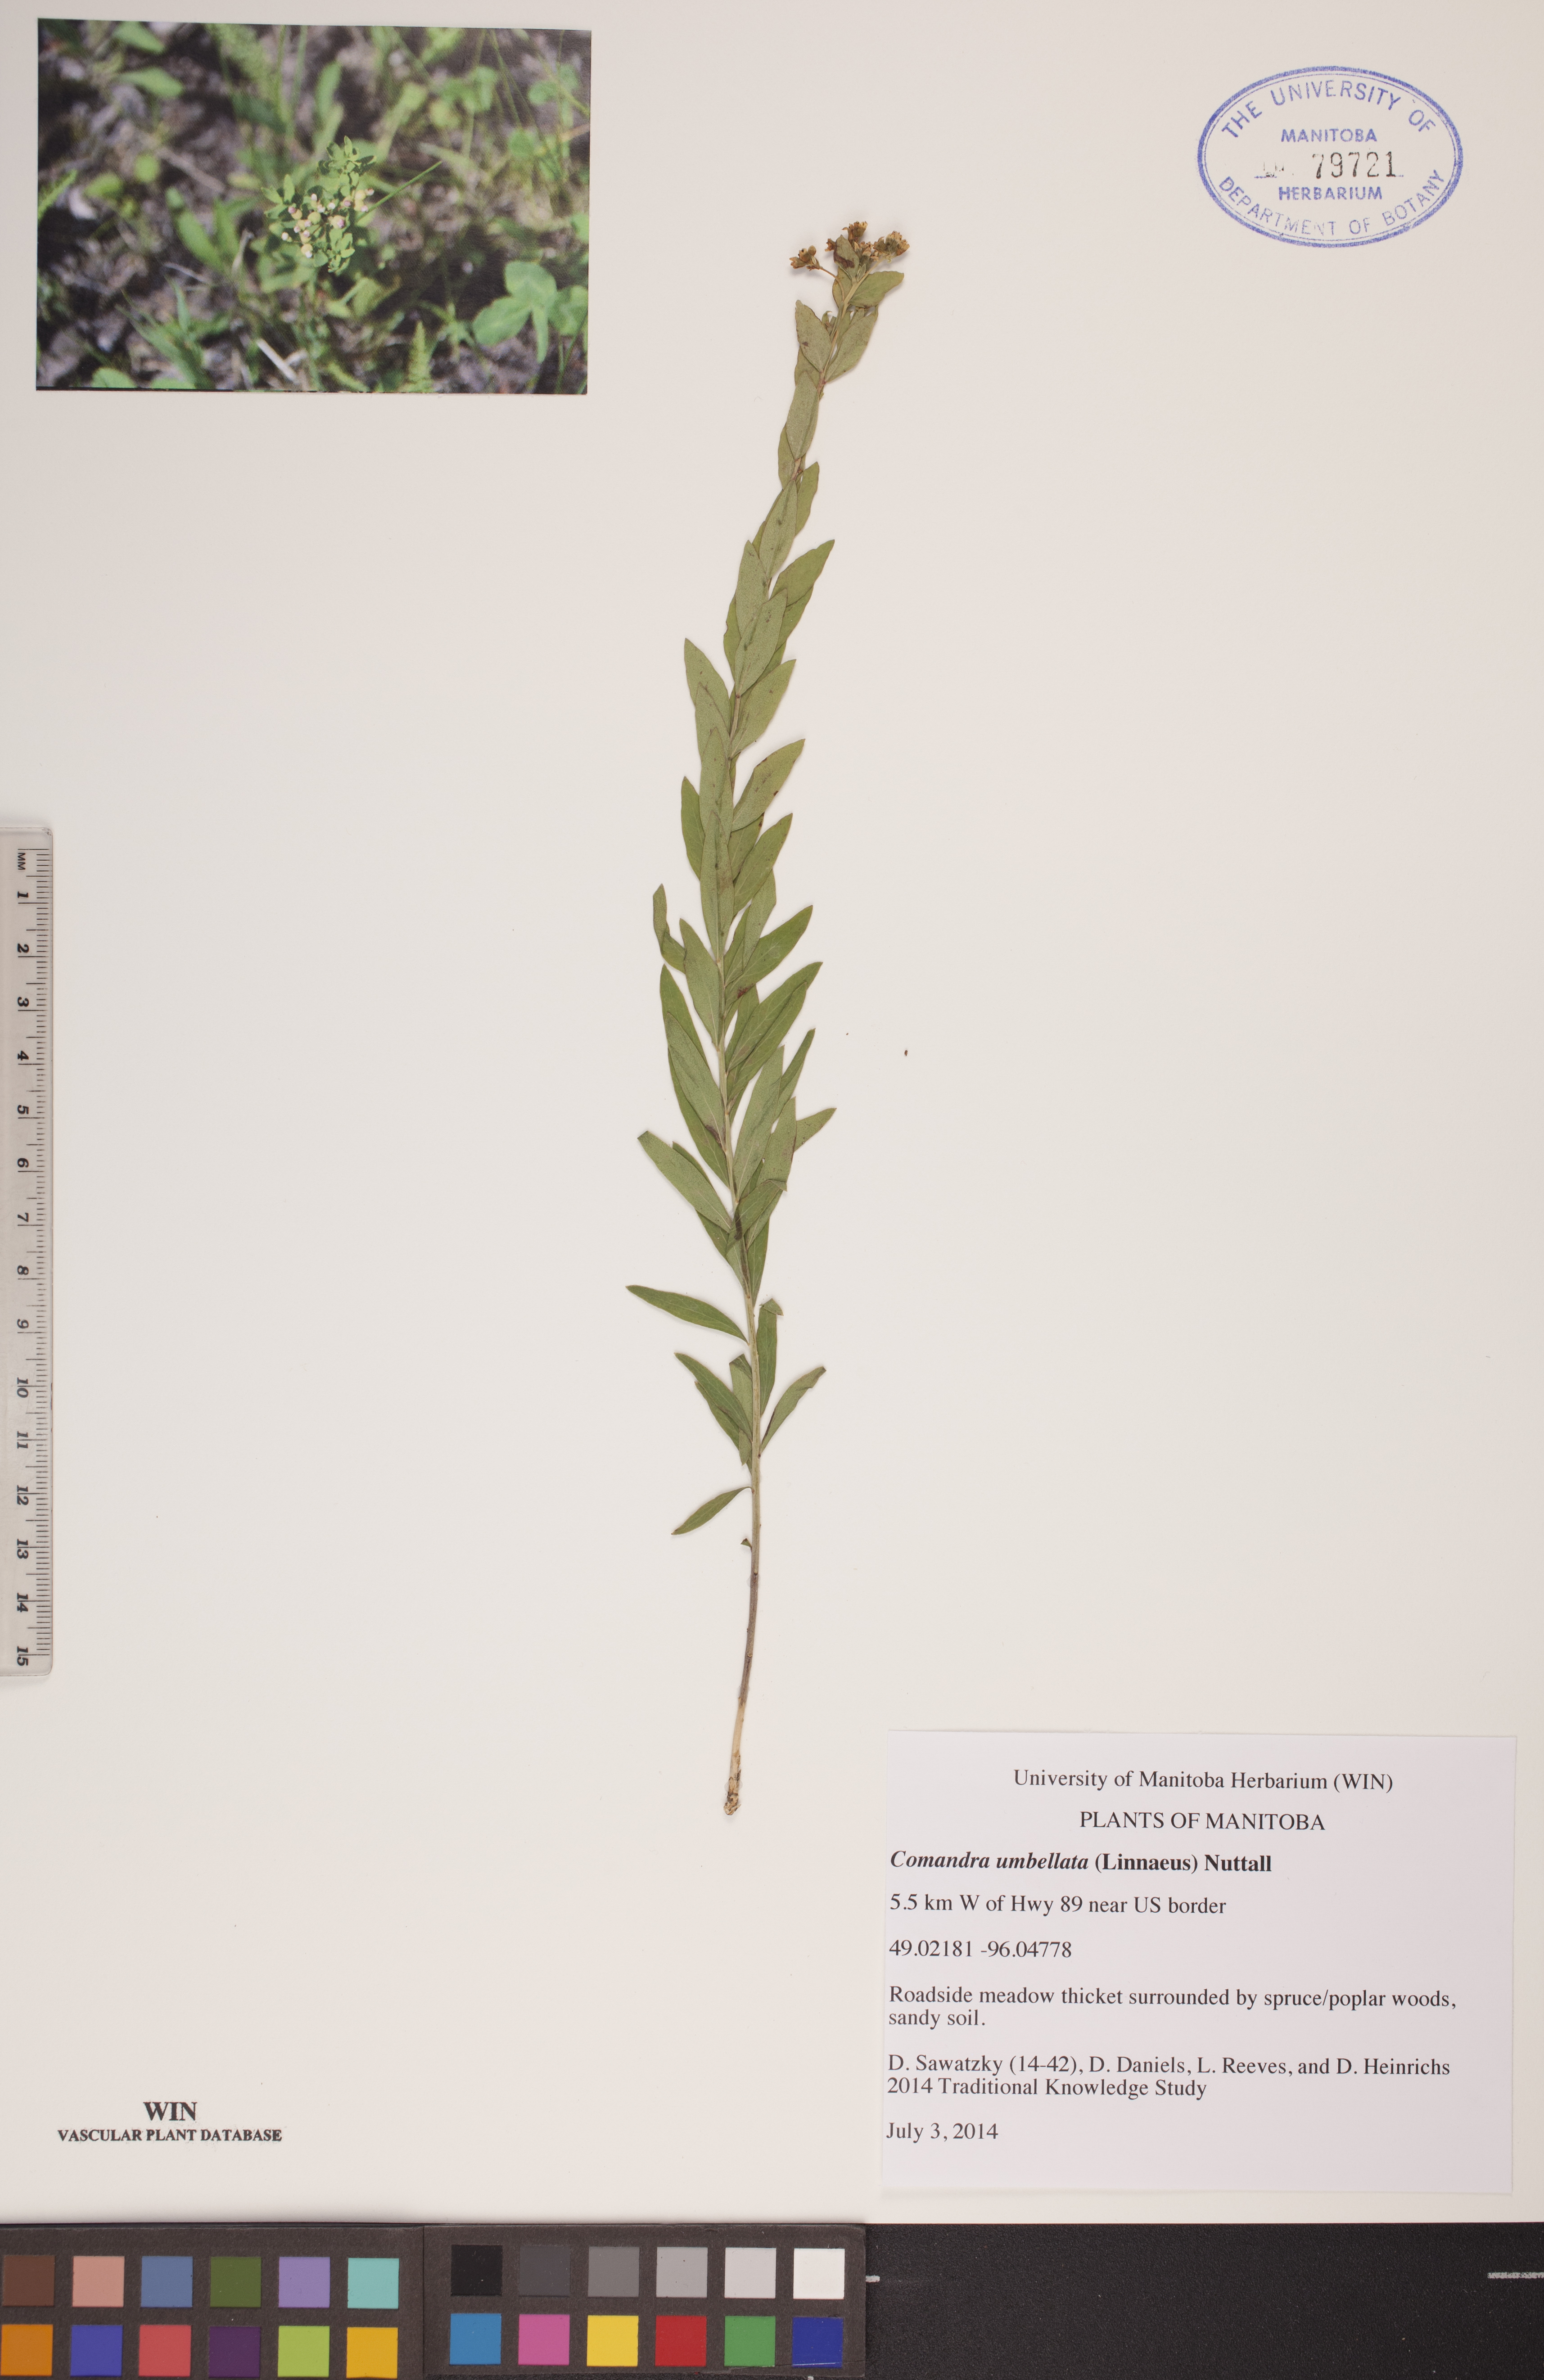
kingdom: Plantae
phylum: Tracheophyta
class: Magnoliopsida
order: Santalales
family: Comandraceae
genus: Comandra
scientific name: Comandra umbellata
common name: Bastard toadflax
